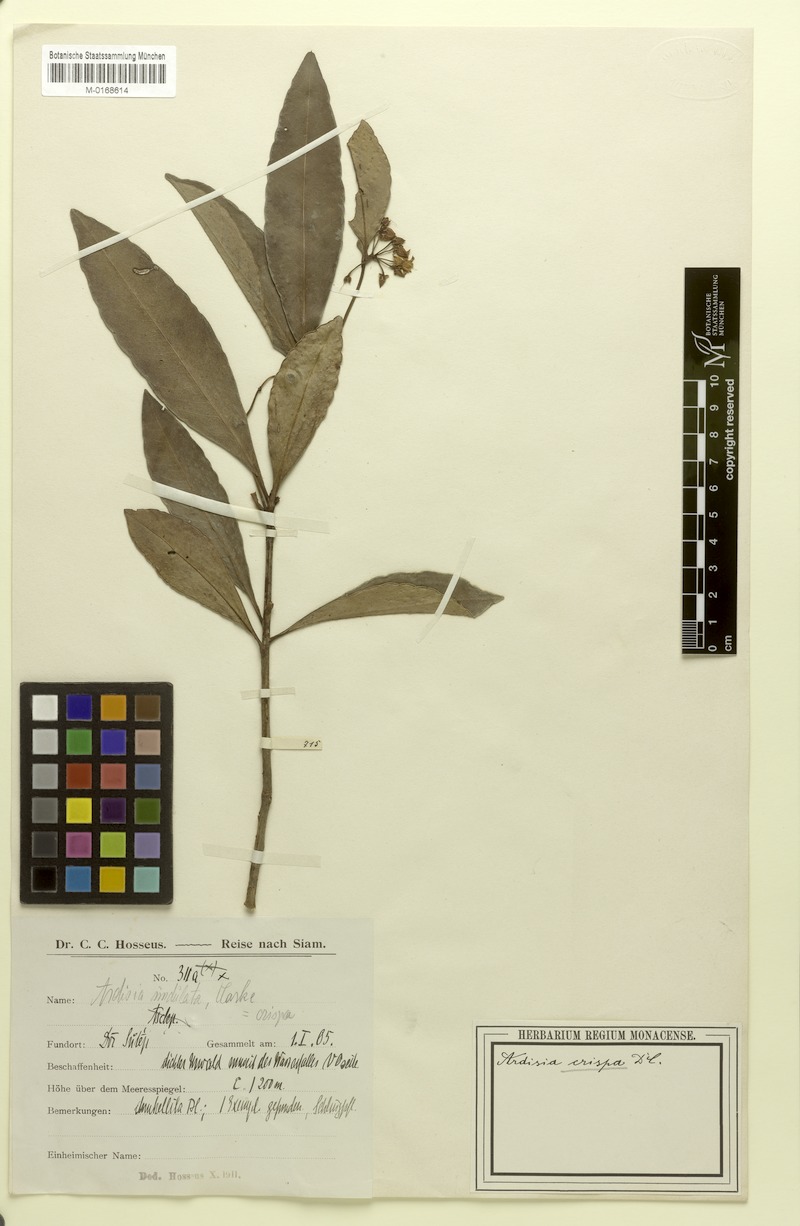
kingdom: Plantae
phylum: Tracheophyta
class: Magnoliopsida
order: Ericales
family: Primulaceae
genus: Ardisia
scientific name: Ardisia crispa
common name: Japanese-holly
